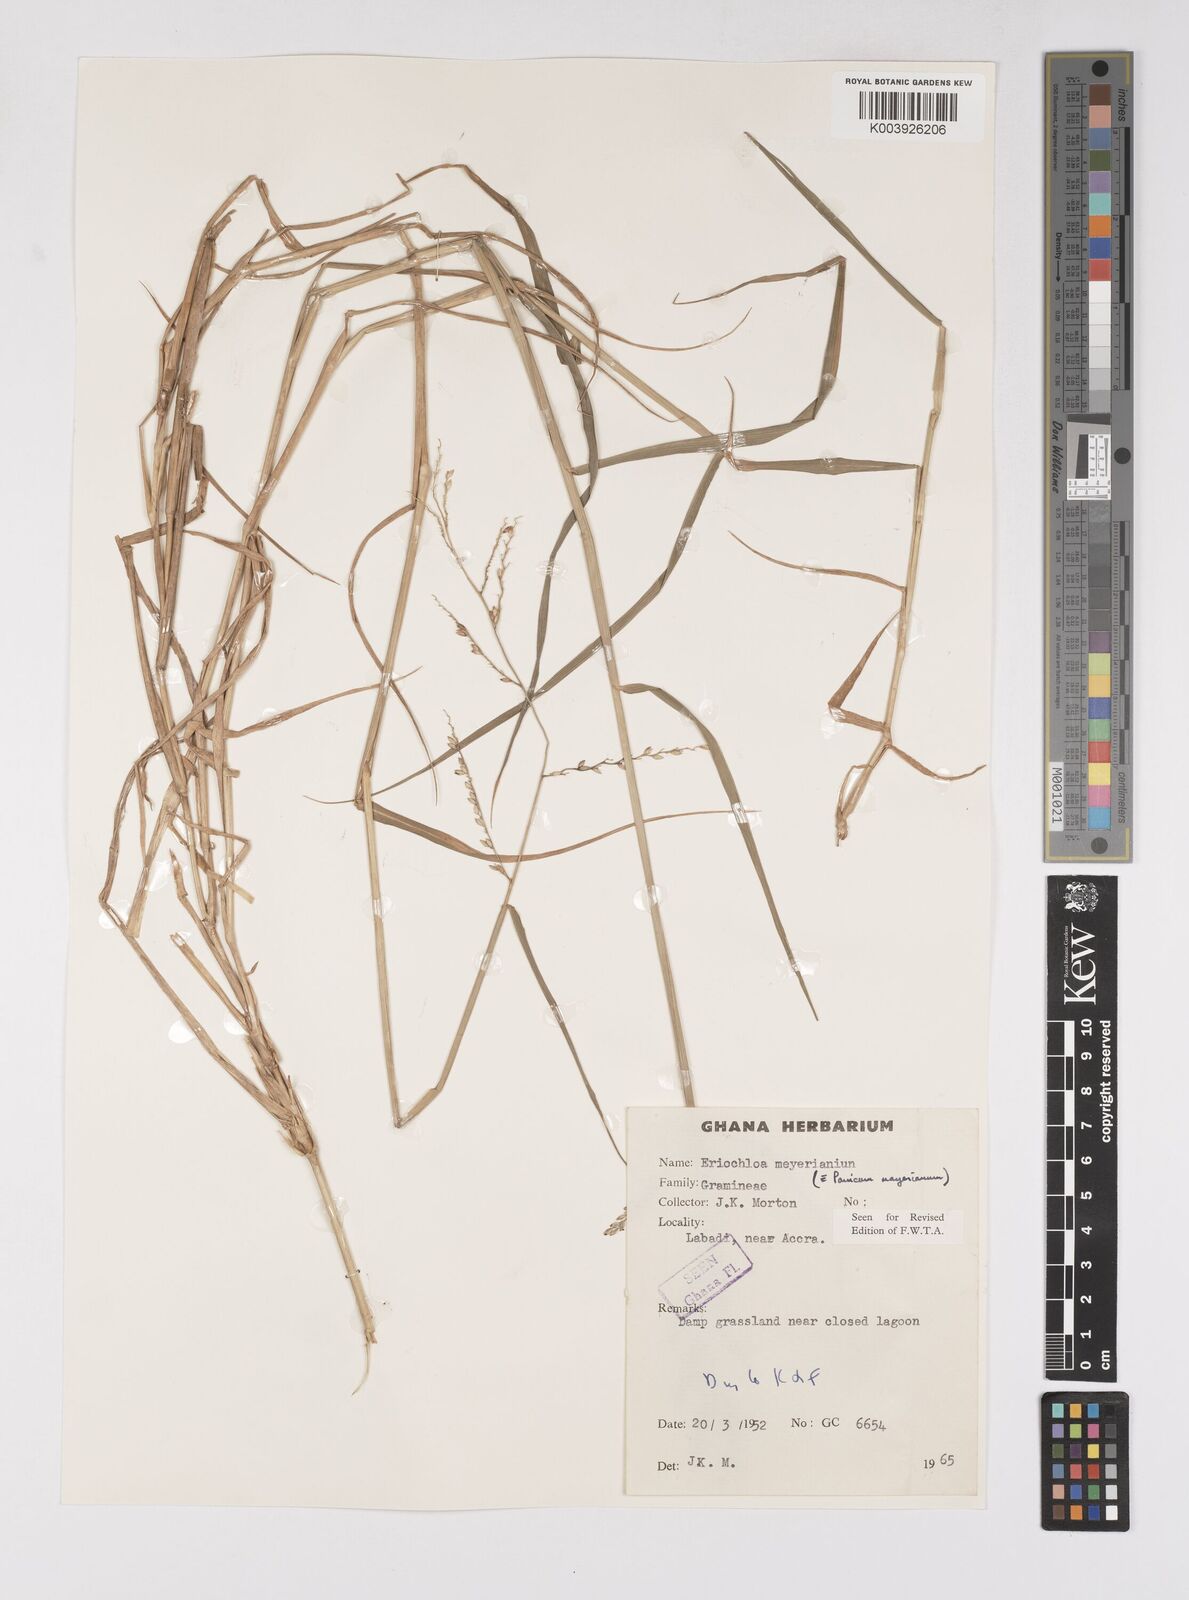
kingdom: Plantae
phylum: Tracheophyta
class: Liliopsida
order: Poales
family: Poaceae
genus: Eriochloa
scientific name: Eriochloa meyeriana
